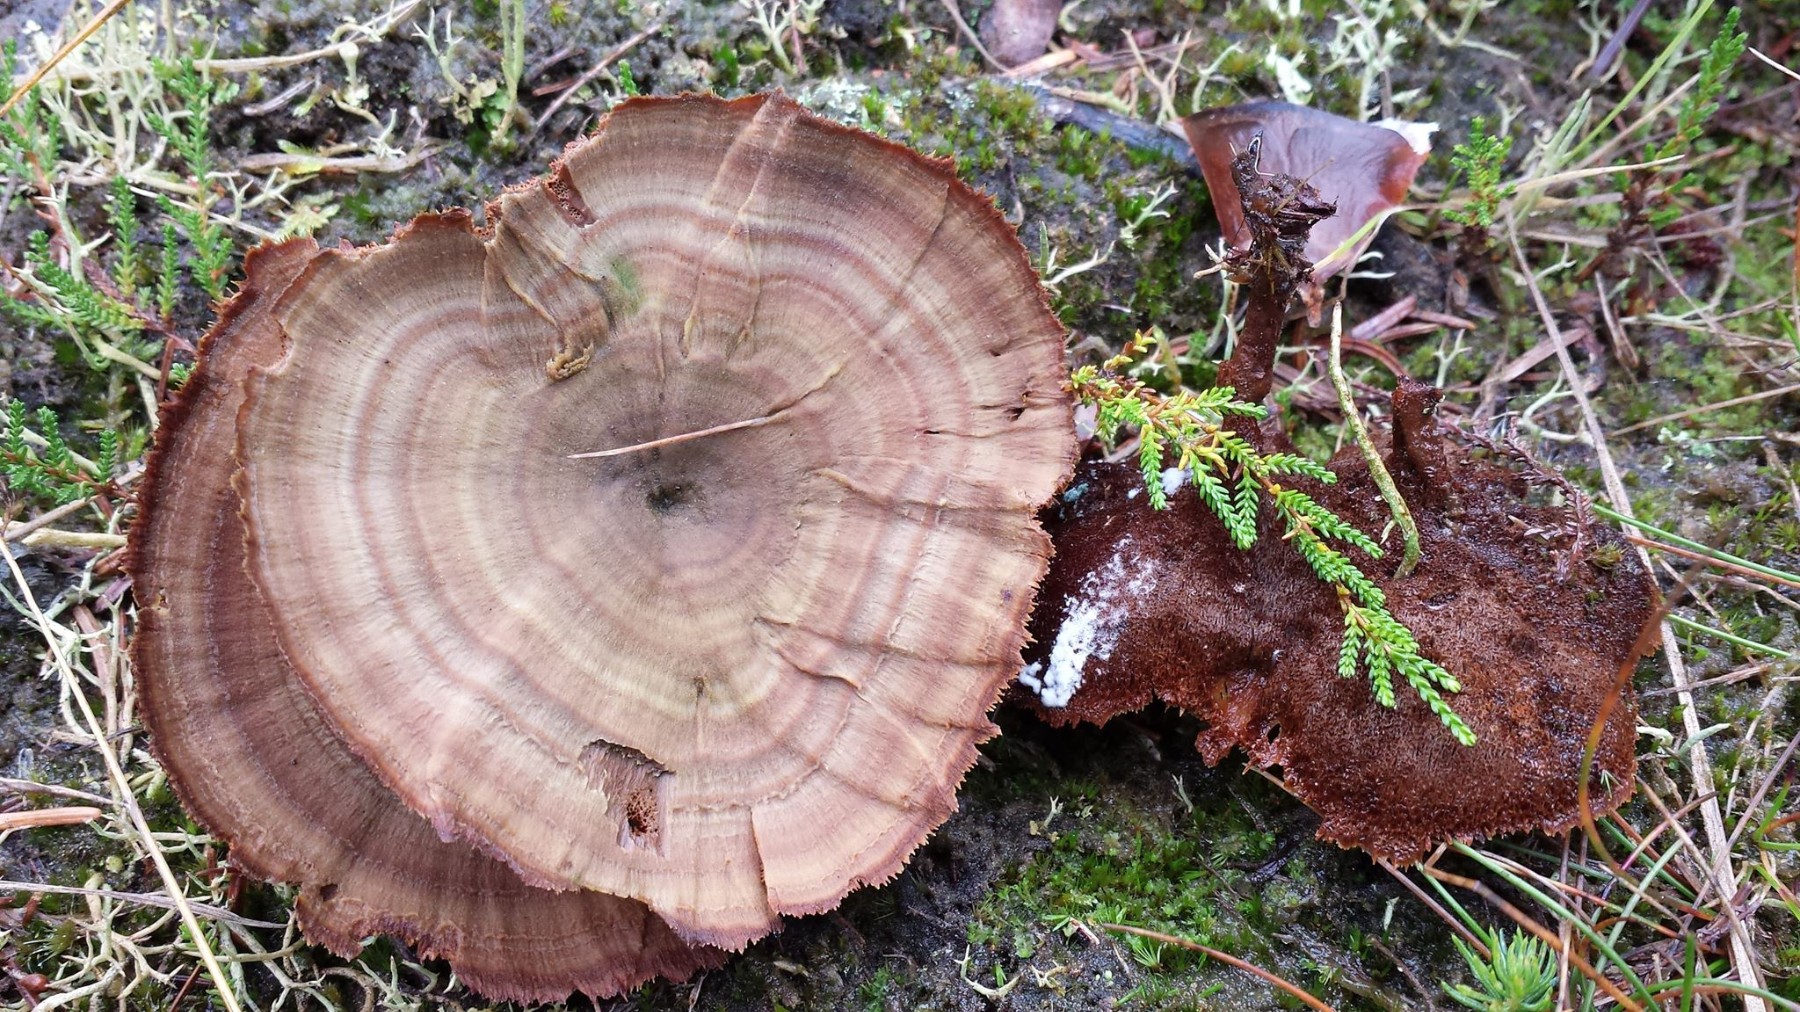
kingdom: Fungi
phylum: Basidiomycota
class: Agaricomycetes
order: Hymenochaetales
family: Hymenochaetaceae
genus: Coltricia
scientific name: Coltricia perennis
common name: almindelig sandporesvamp
